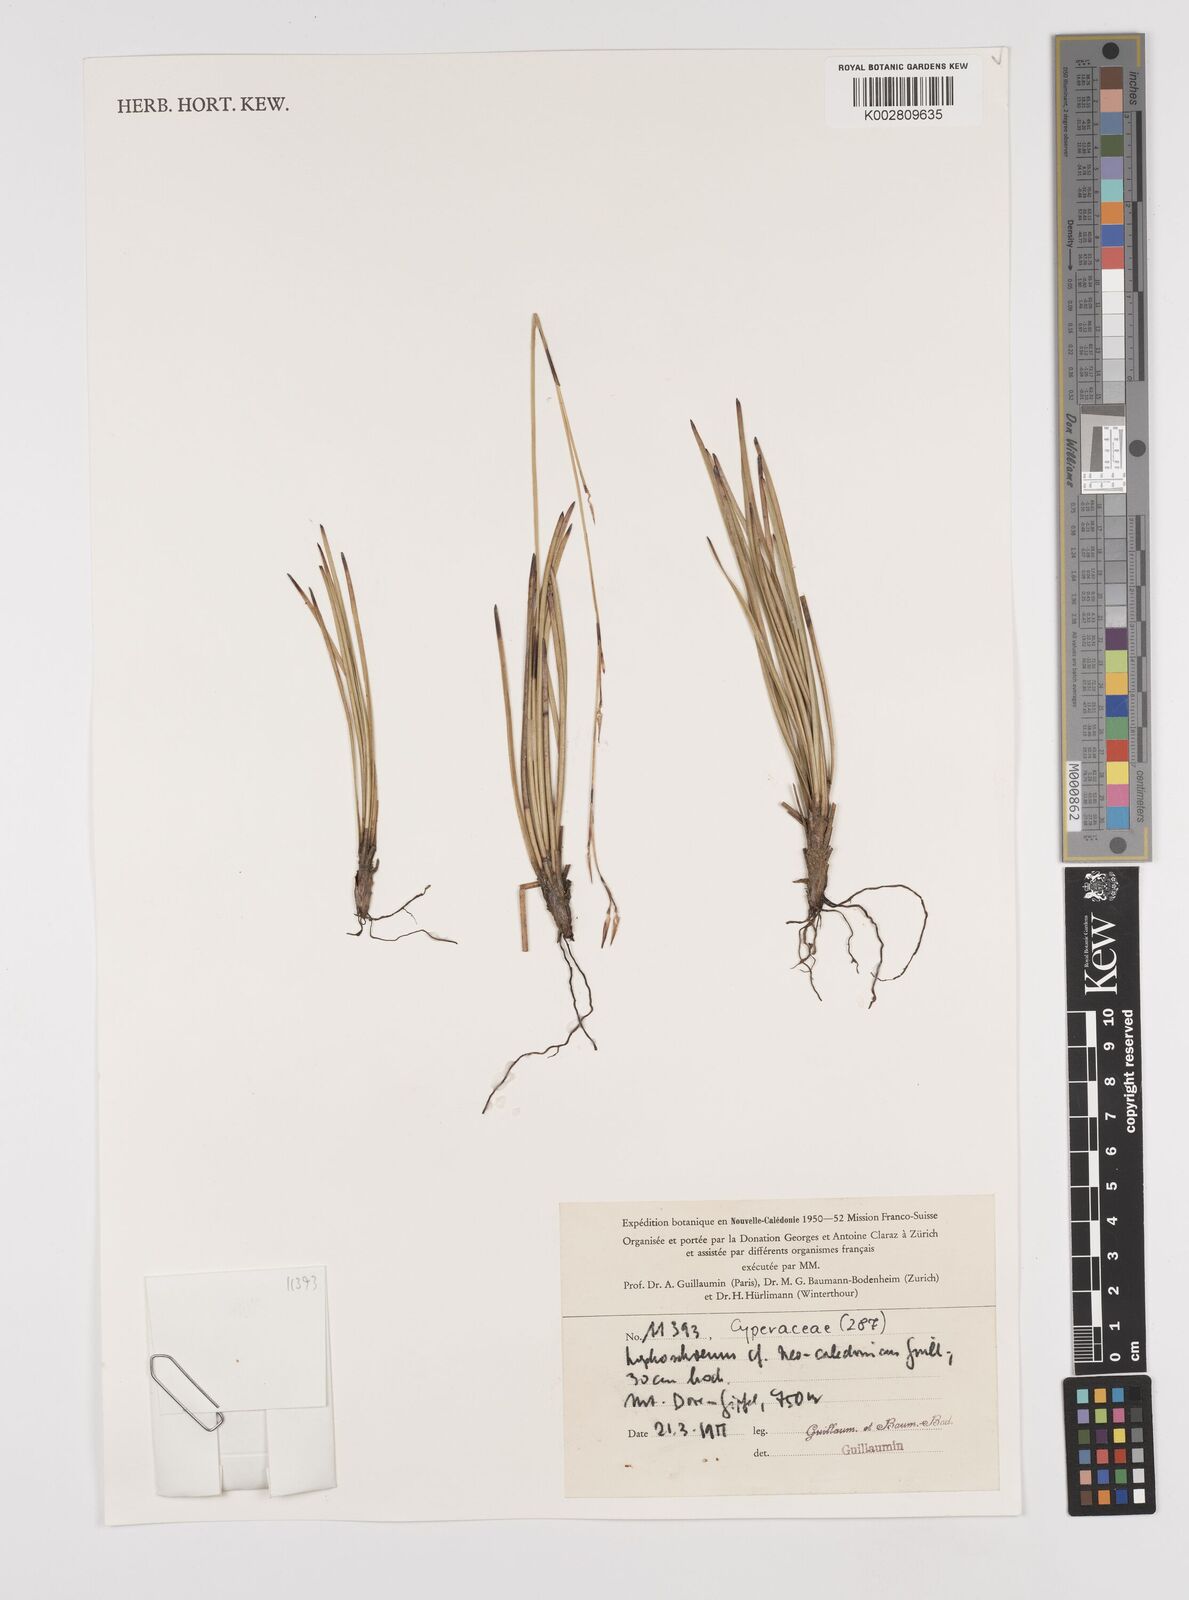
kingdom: Plantae
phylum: Tracheophyta
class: Liliopsida
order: Poales
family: Cyperaceae
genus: Schoenus
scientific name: Schoenus neocaledonicus
